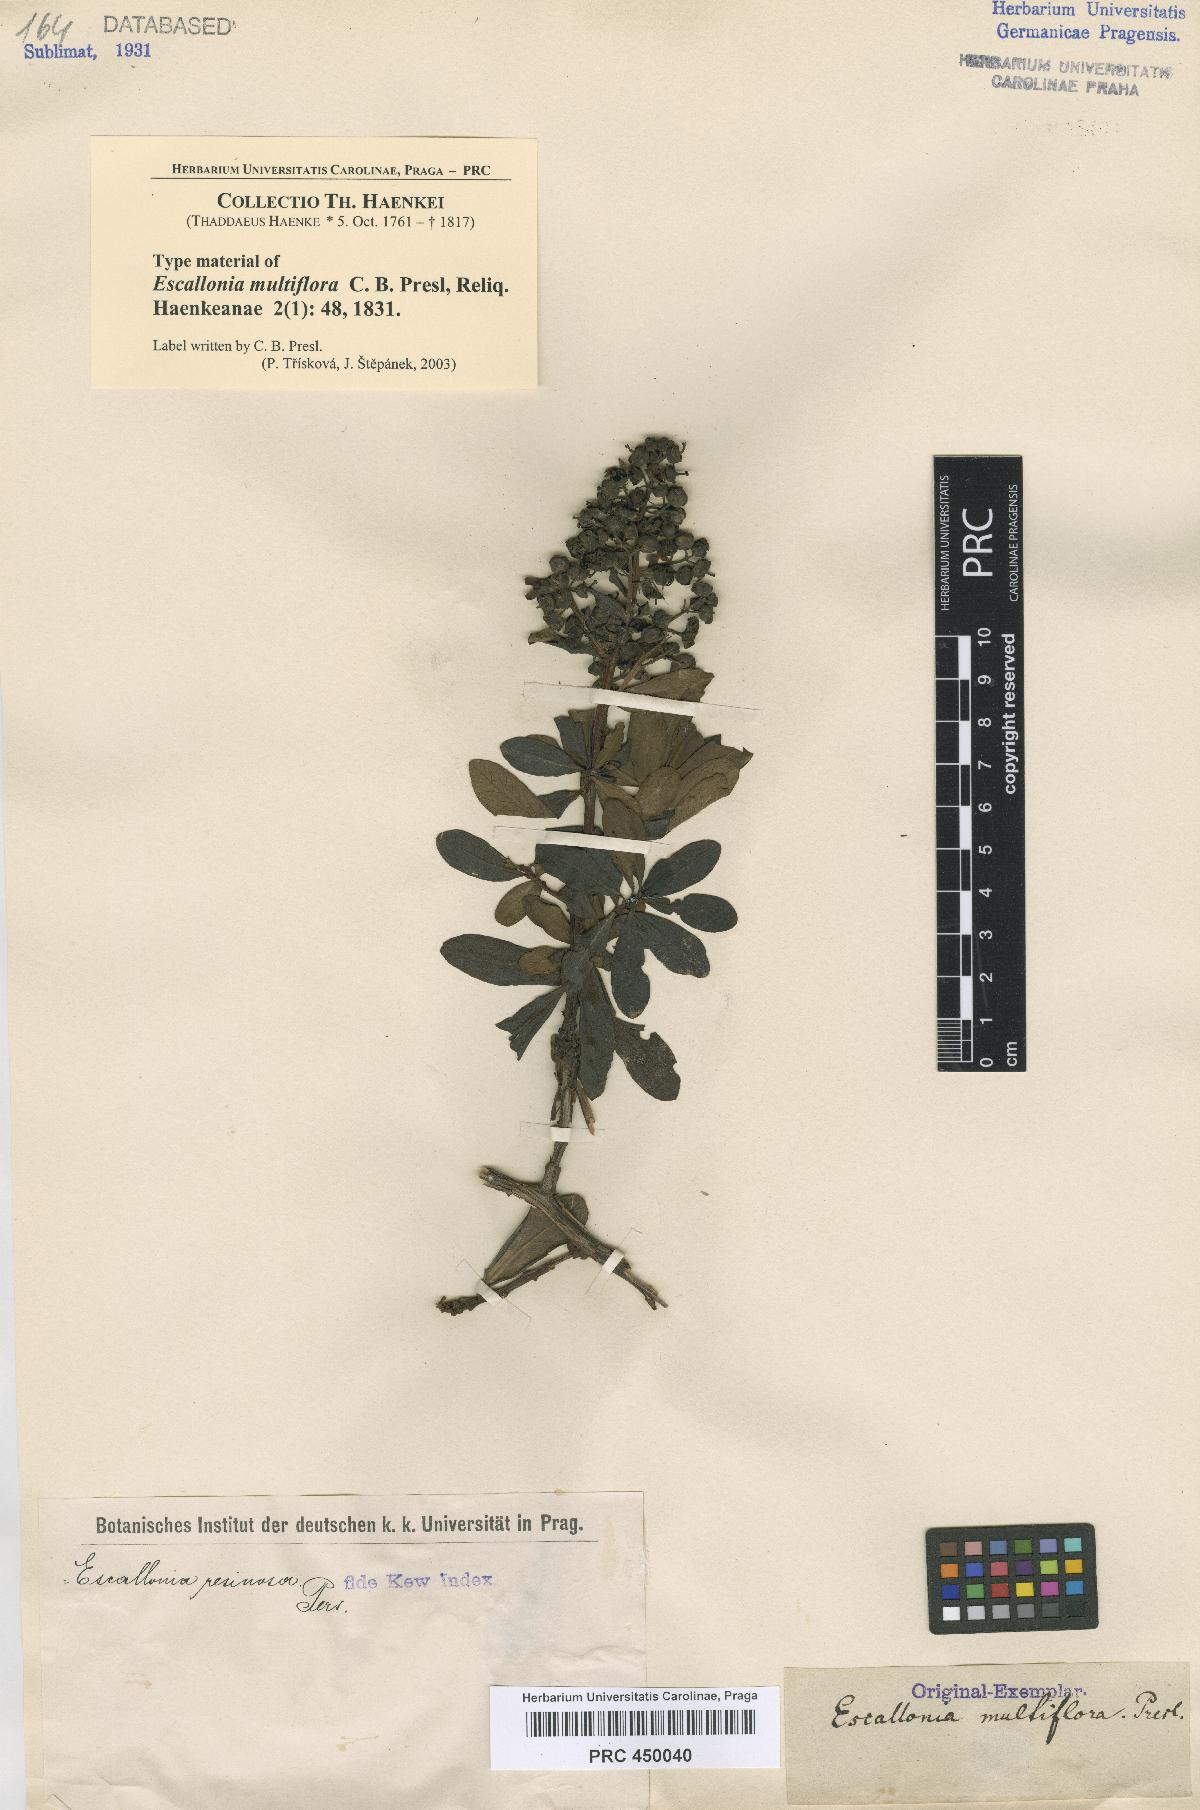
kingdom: Plantae
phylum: Tracheophyta
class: Magnoliopsida
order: Escalloniales
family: Escalloniaceae
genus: Escallonia
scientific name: Escallonia resinosa
